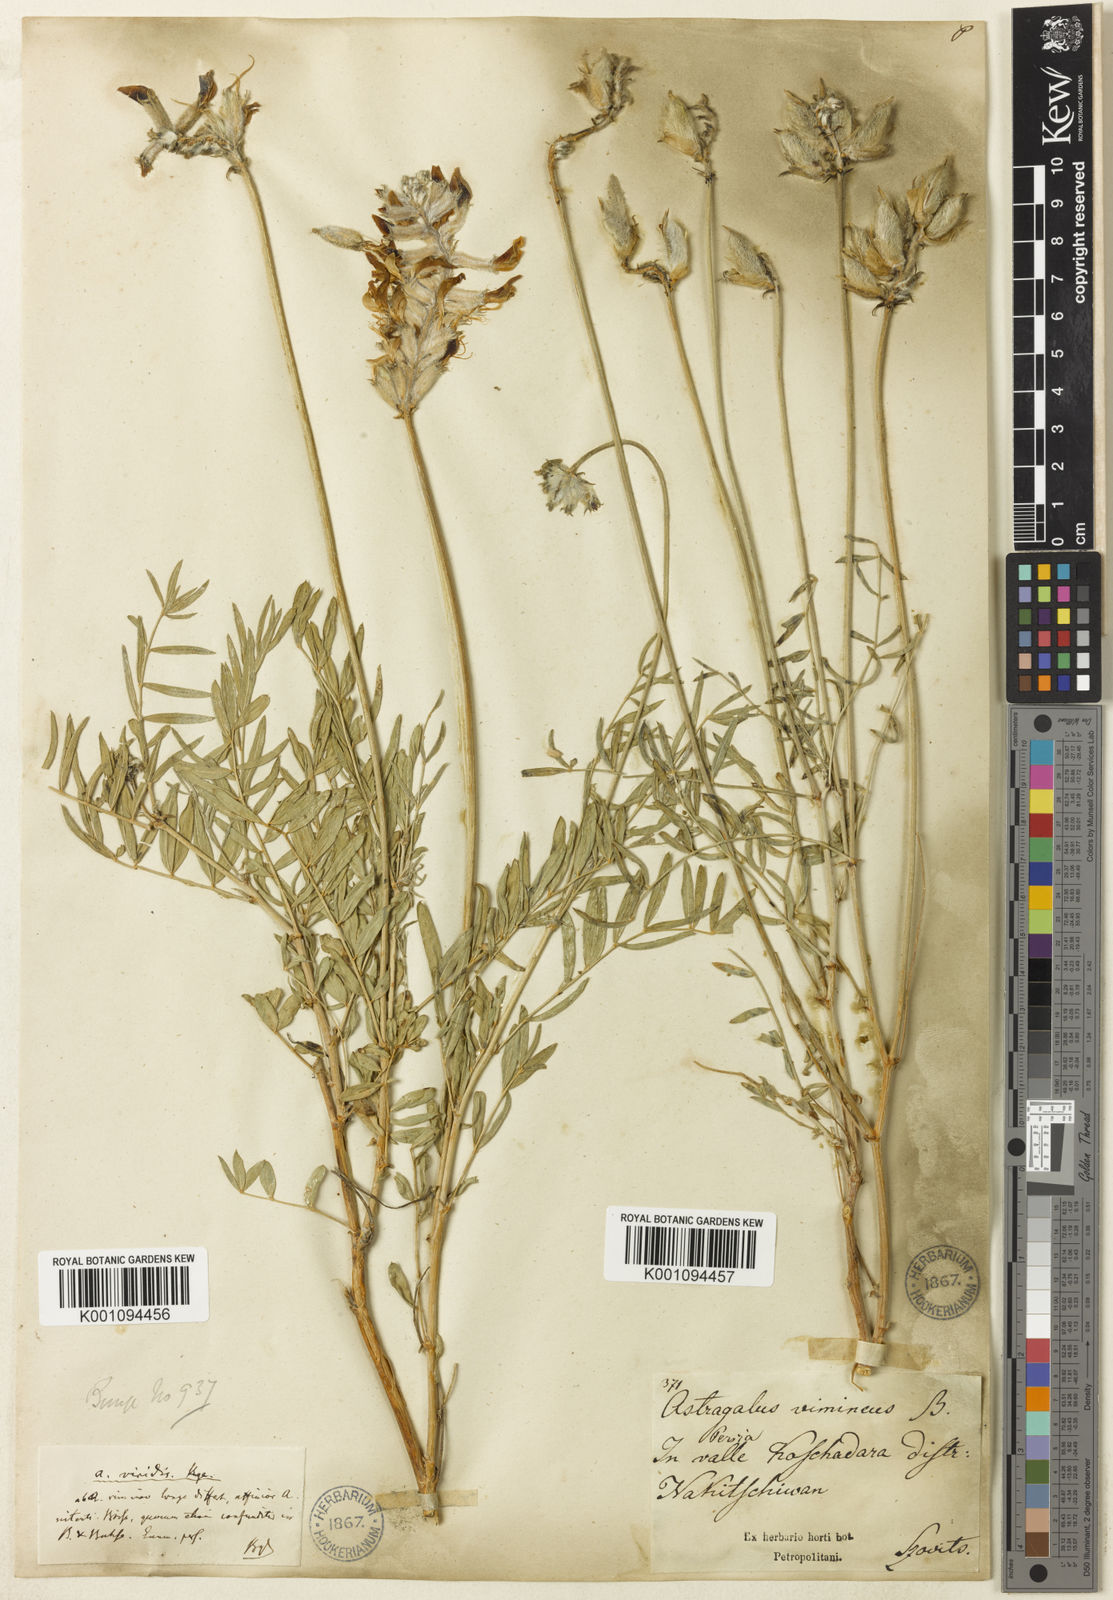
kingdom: Plantae
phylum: Tracheophyta
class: Magnoliopsida
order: Fabales
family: Fabaceae
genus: Astragalus
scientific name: Astragalus
